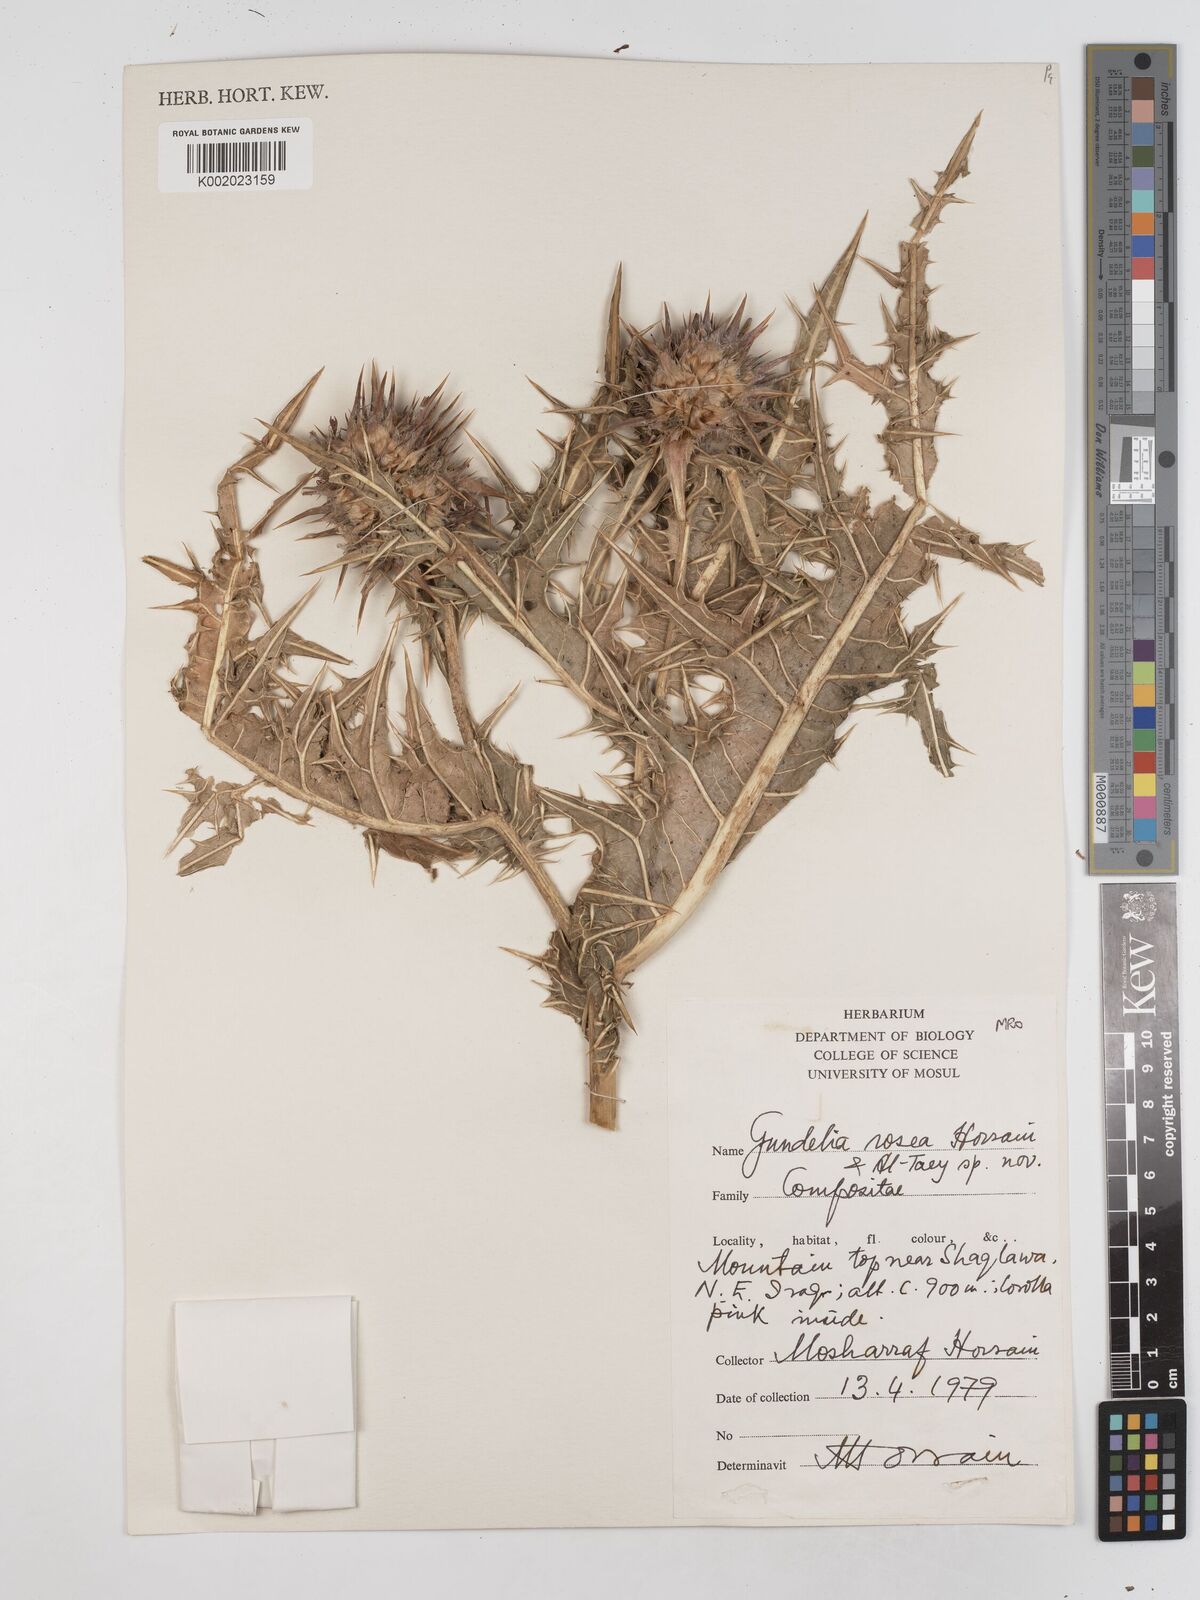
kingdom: Plantae
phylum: Tracheophyta
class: Magnoliopsida
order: Asterales
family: Asteraceae
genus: Gundelia
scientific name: Gundelia rosea
